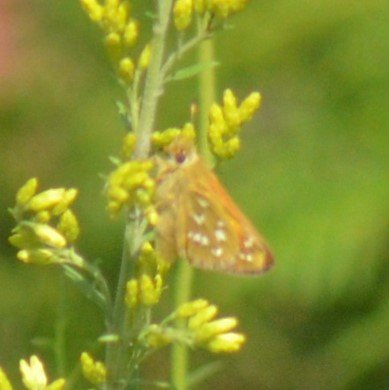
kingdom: Animalia
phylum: Arthropoda
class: Insecta
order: Lepidoptera
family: Hesperiidae
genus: Hesperia
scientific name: Hesperia comma
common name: Common Branded Skipper
